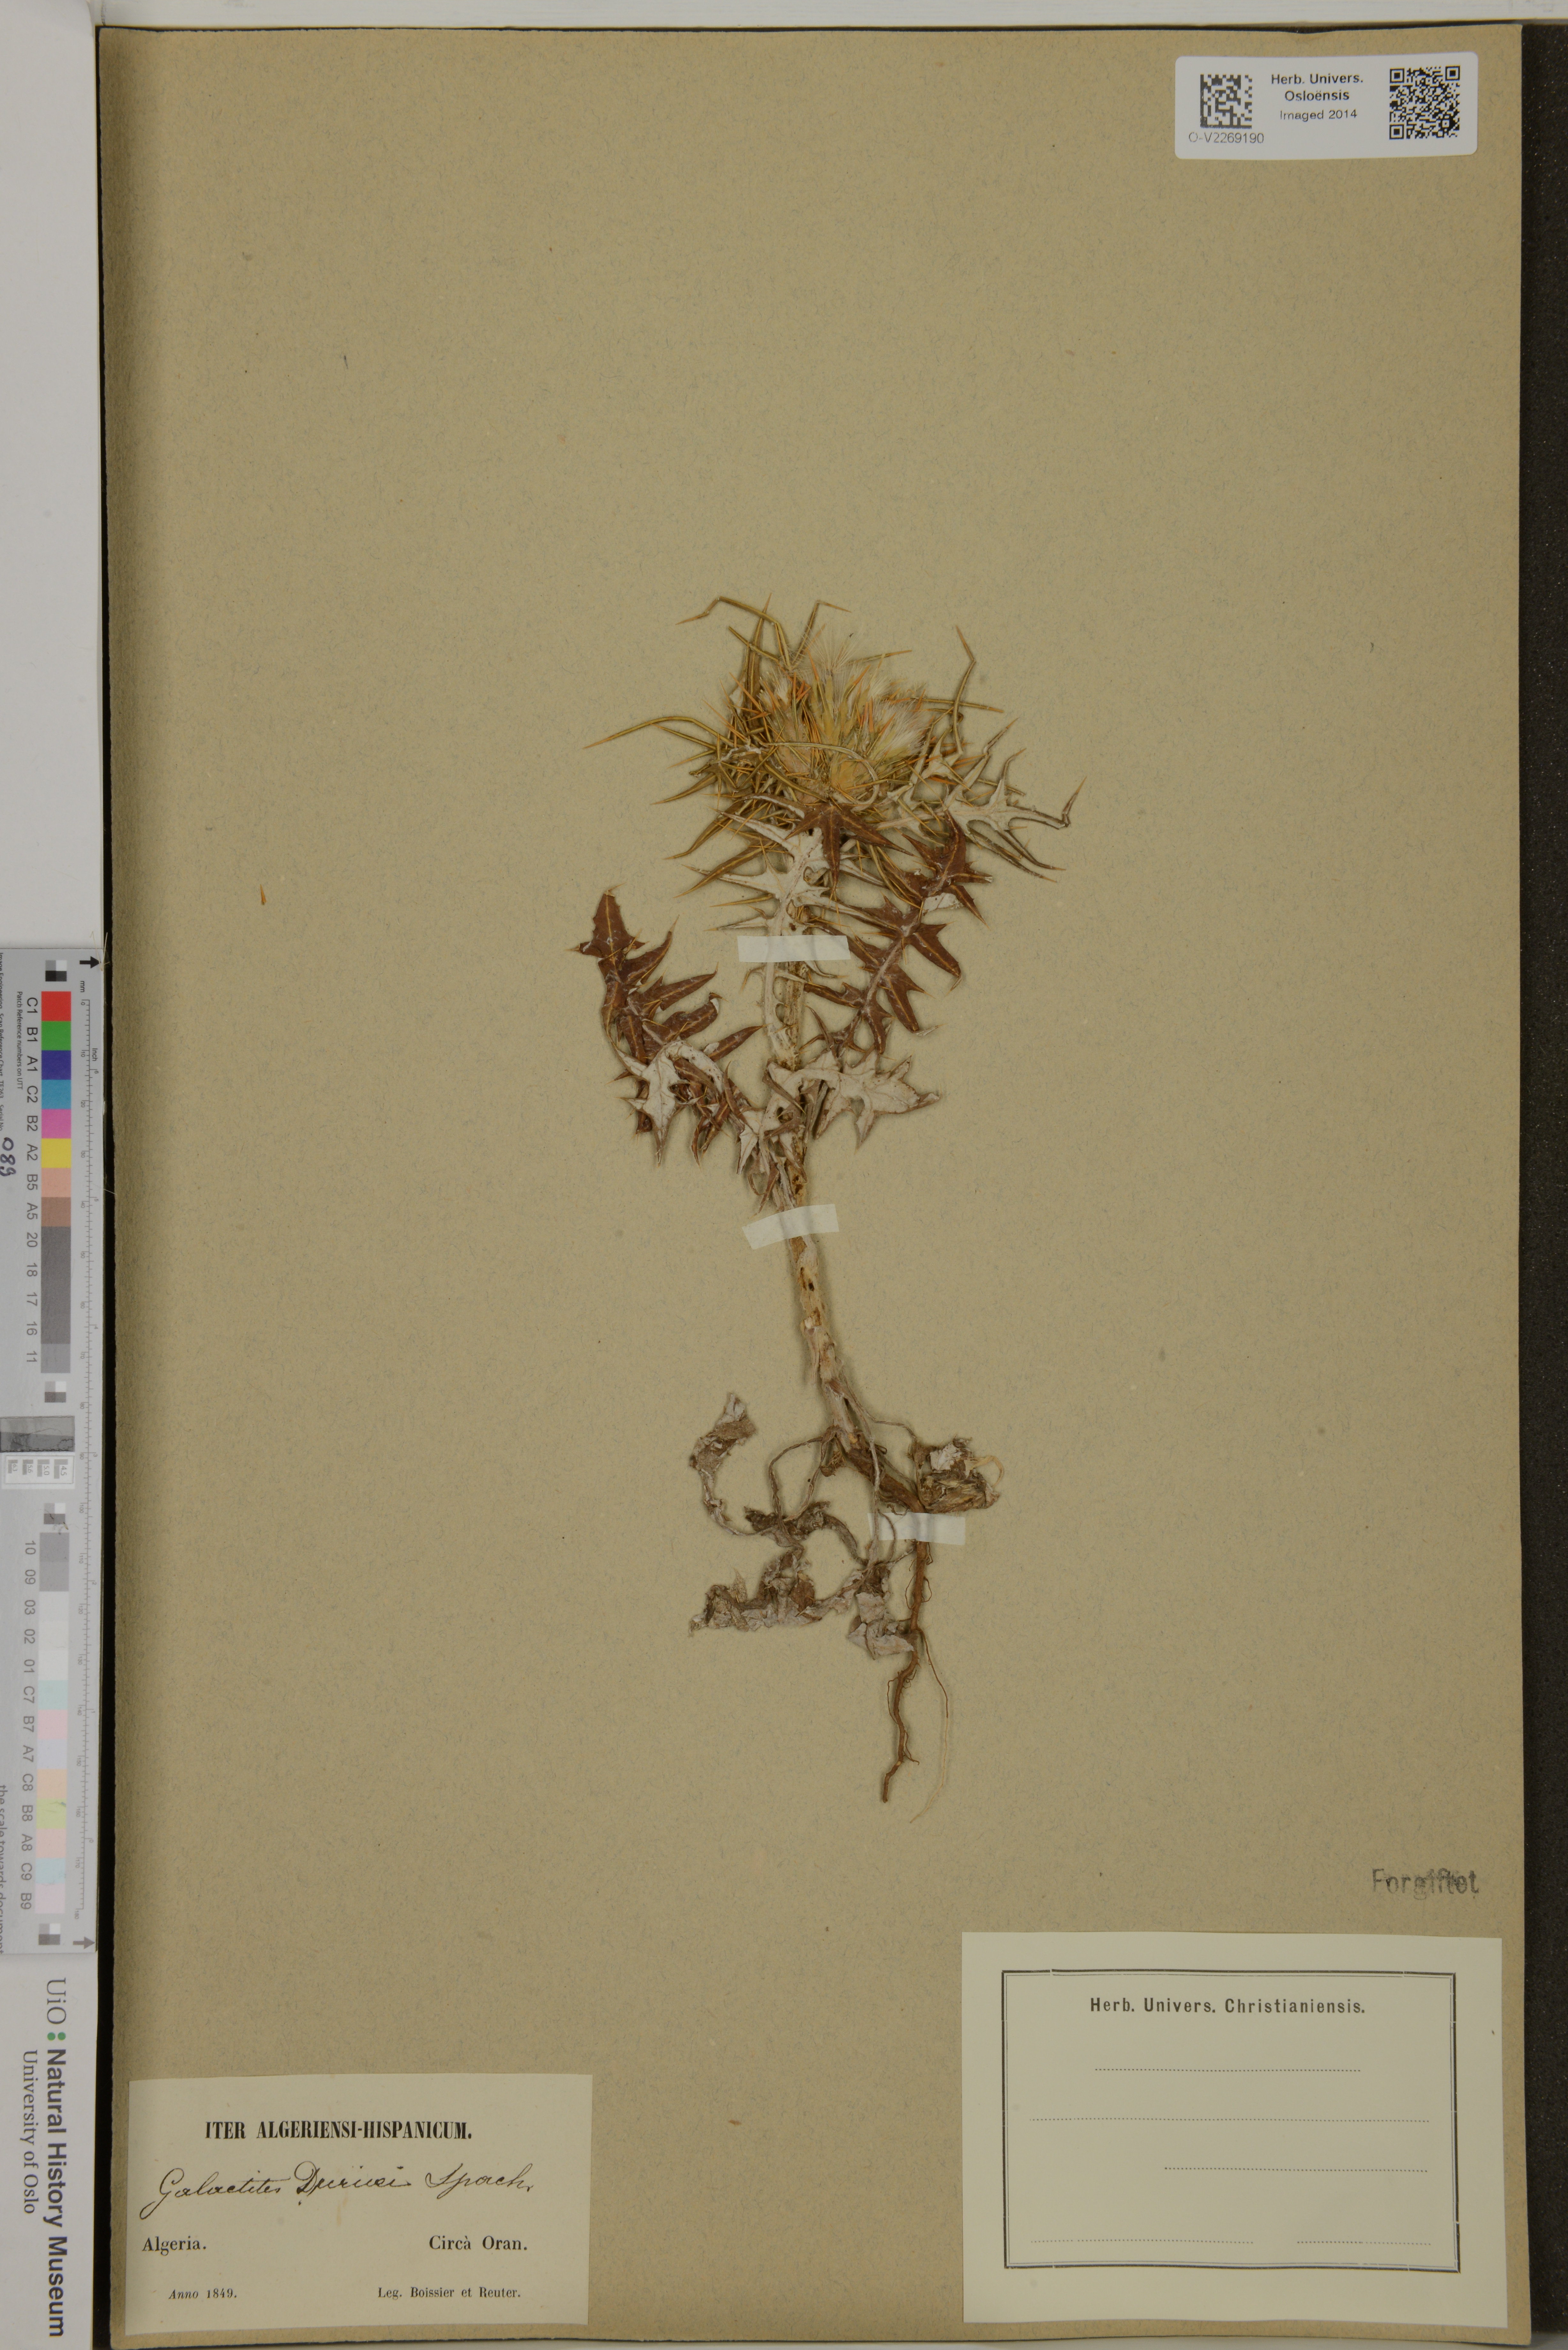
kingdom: Plantae
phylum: Tracheophyta
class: Magnoliopsida
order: Asterales
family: Asteraceae
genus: Galactites
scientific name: Galactites duriaei
